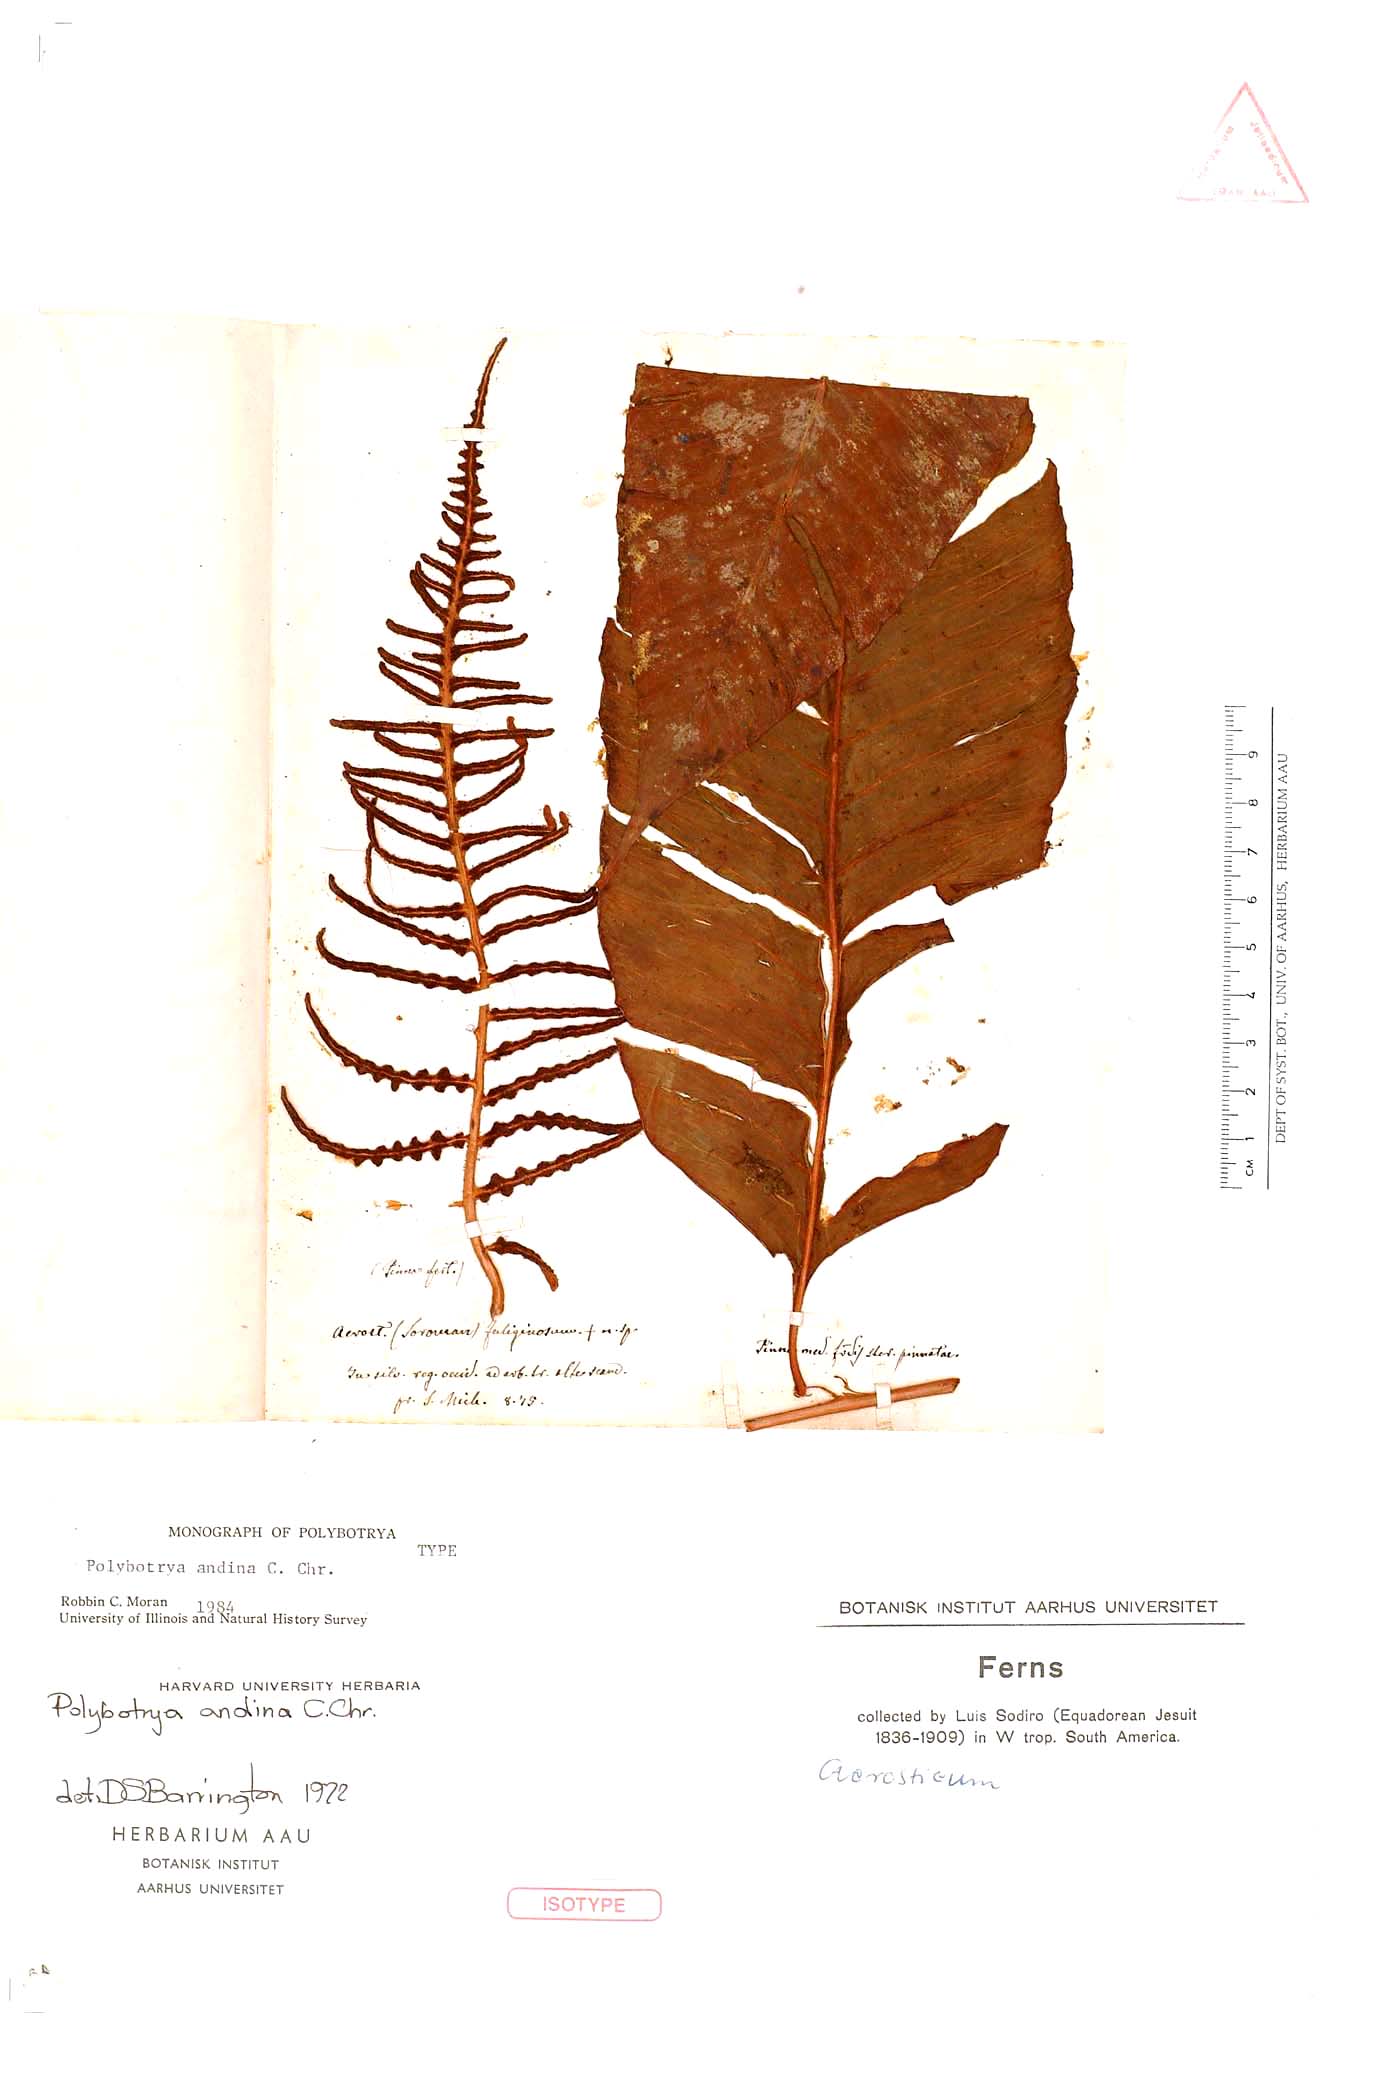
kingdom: Plantae
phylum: Tracheophyta
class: Polypodiopsida
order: Polypodiales
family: Dryopteridaceae
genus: Polybotrya
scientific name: Polybotrya andina
